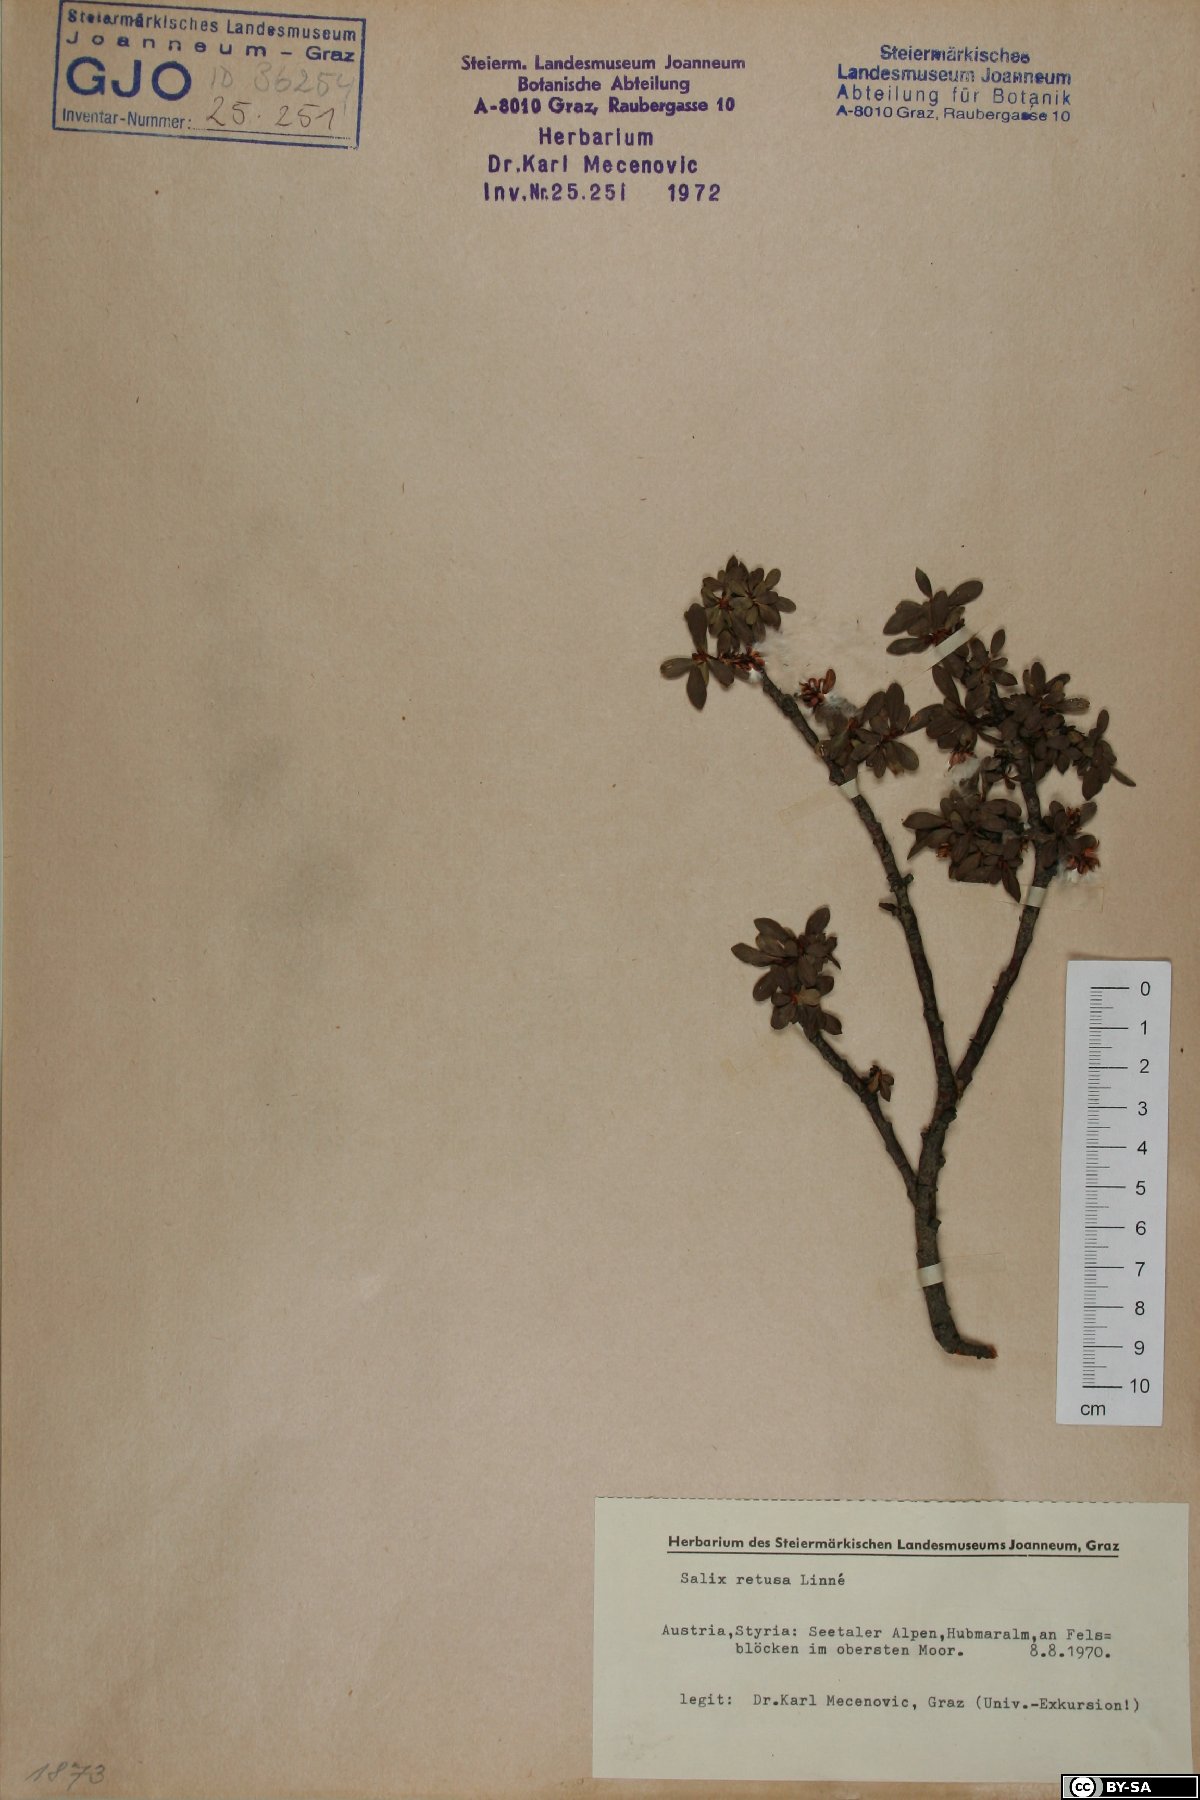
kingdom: Plantae
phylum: Tracheophyta
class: Magnoliopsida
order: Malpighiales
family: Salicaceae
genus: Salix
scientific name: Salix retusa
